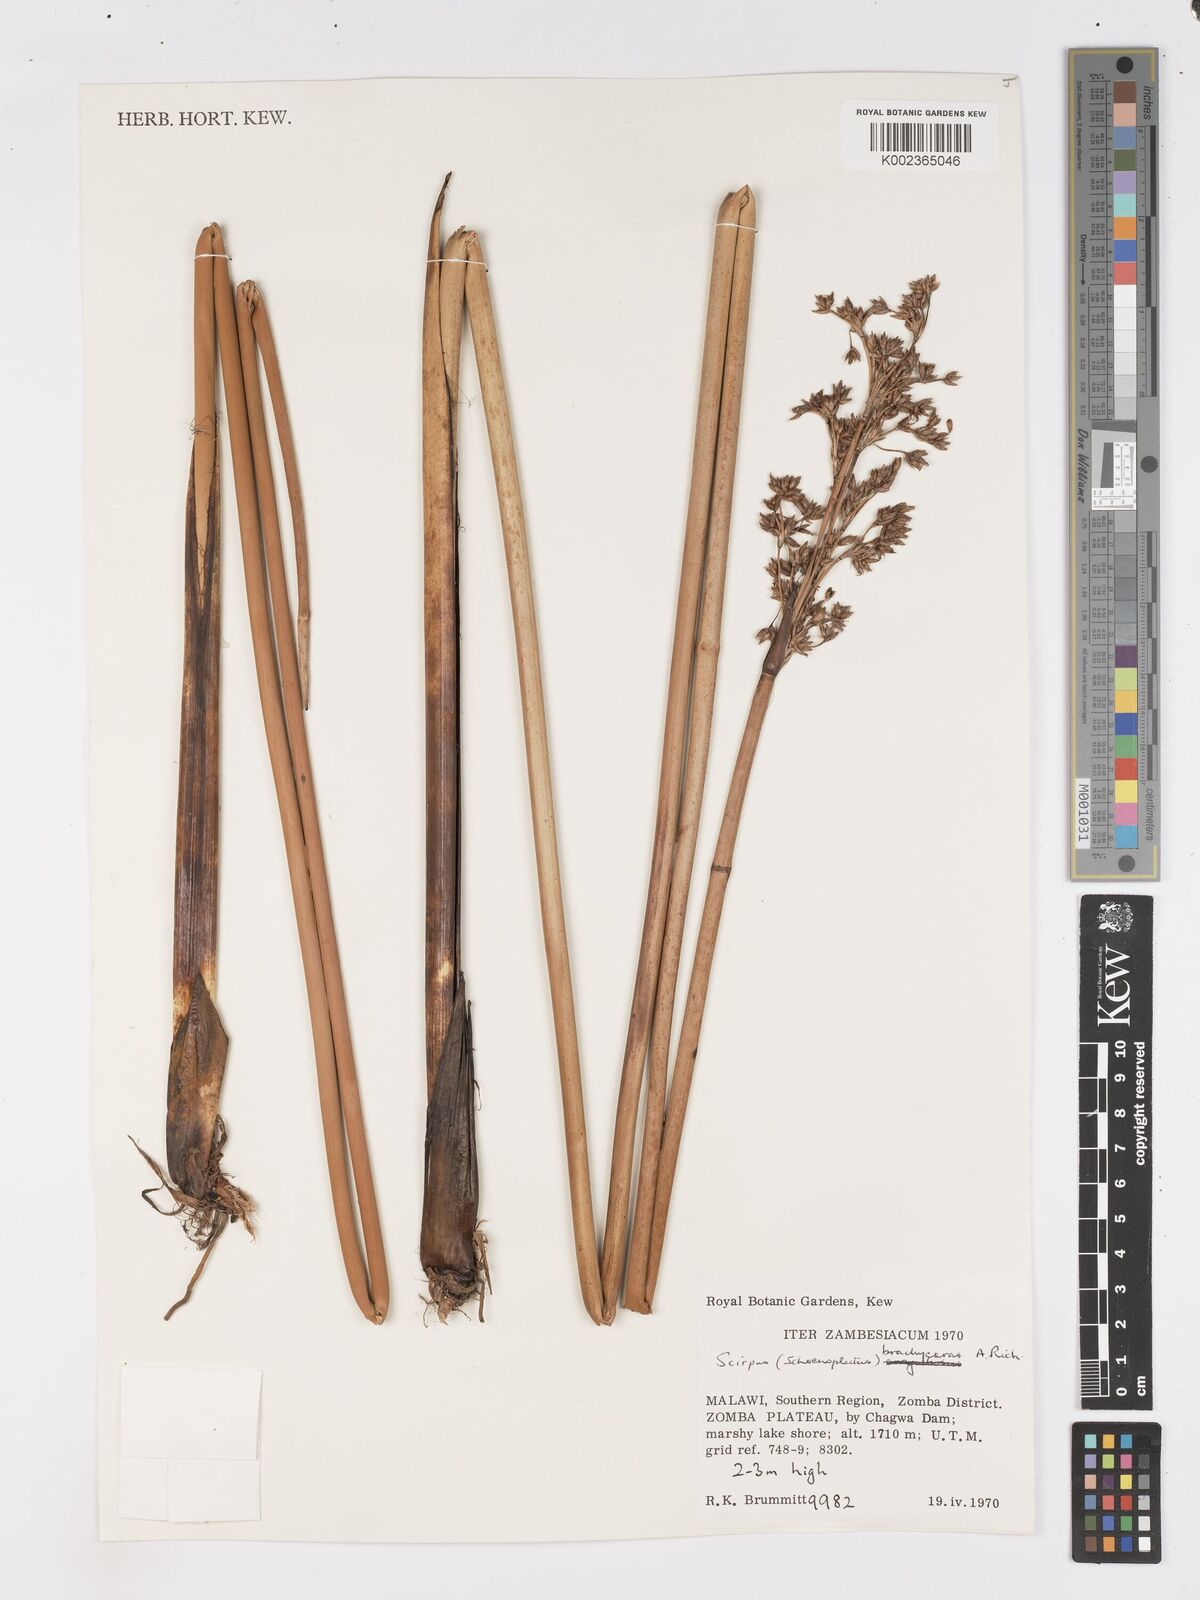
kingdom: Plantae
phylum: Tracheophyta
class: Liliopsida
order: Poales
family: Cyperaceae
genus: Schoenoplectus
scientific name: Schoenoplectus
